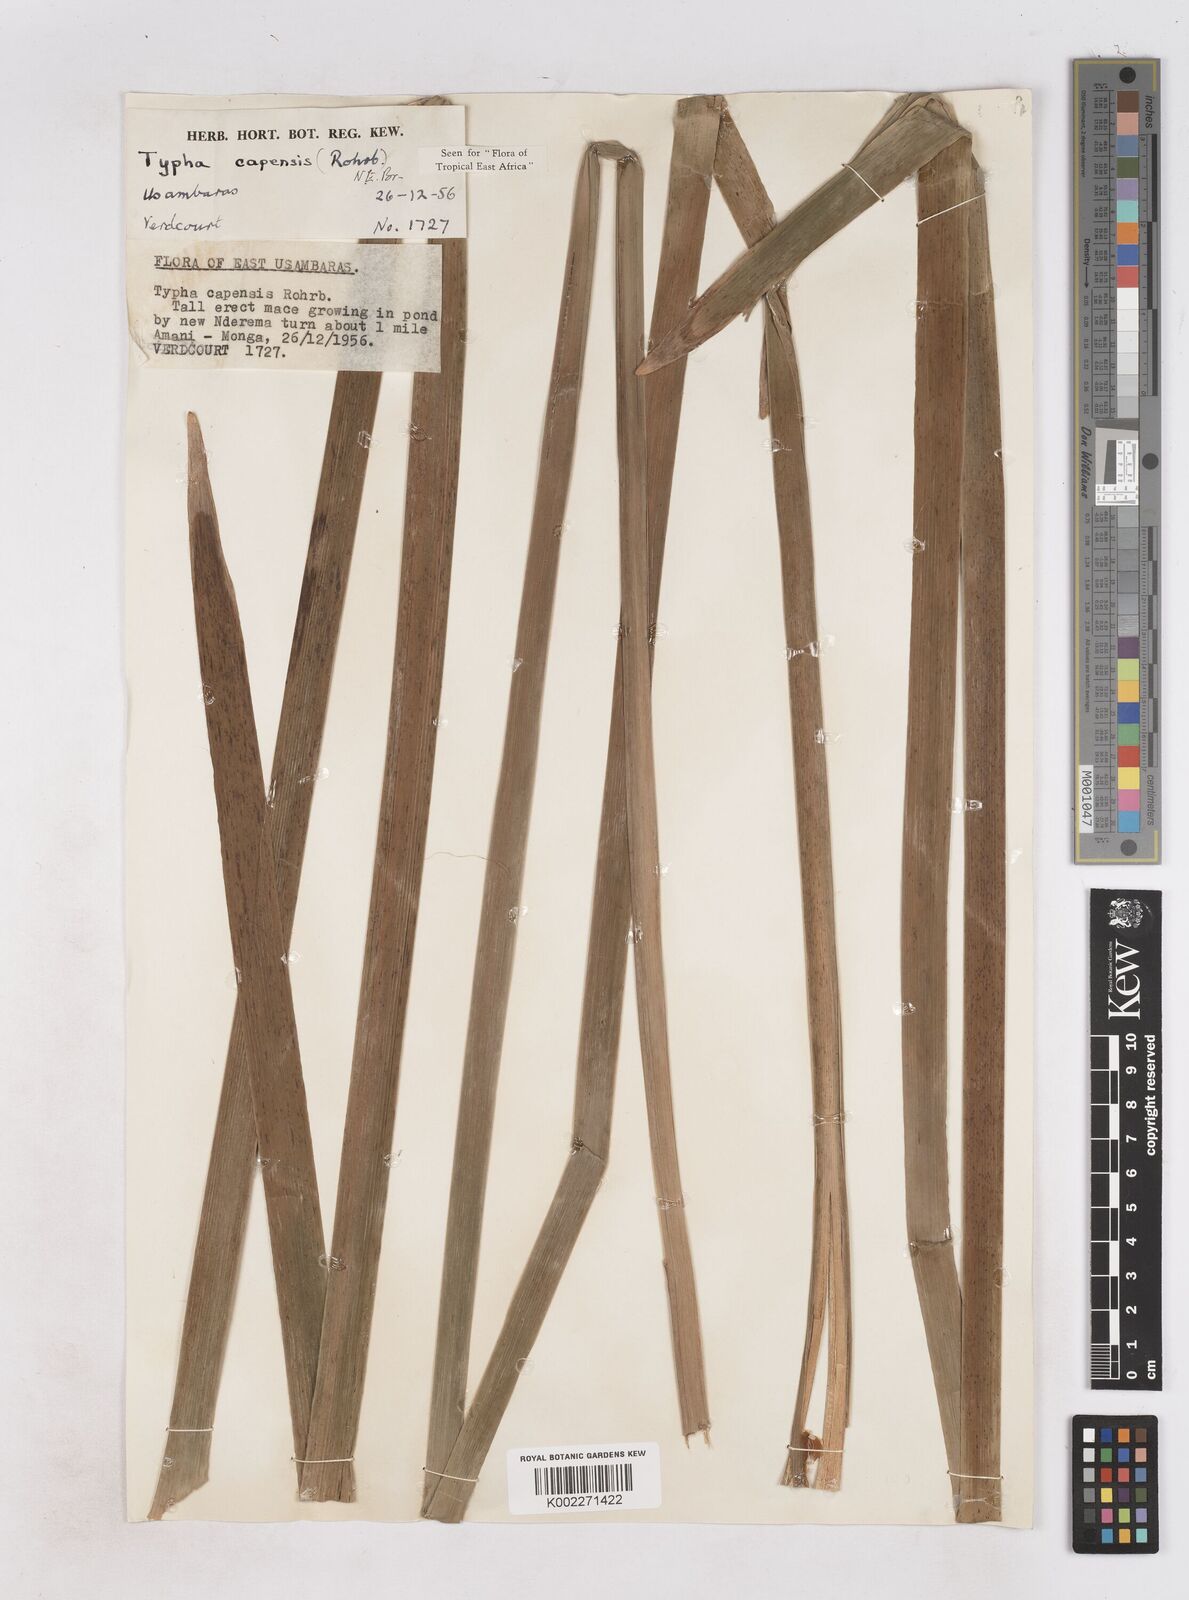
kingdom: Plantae
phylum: Tracheophyta
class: Liliopsida
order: Poales
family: Typhaceae
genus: Typha
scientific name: Typha capensis
